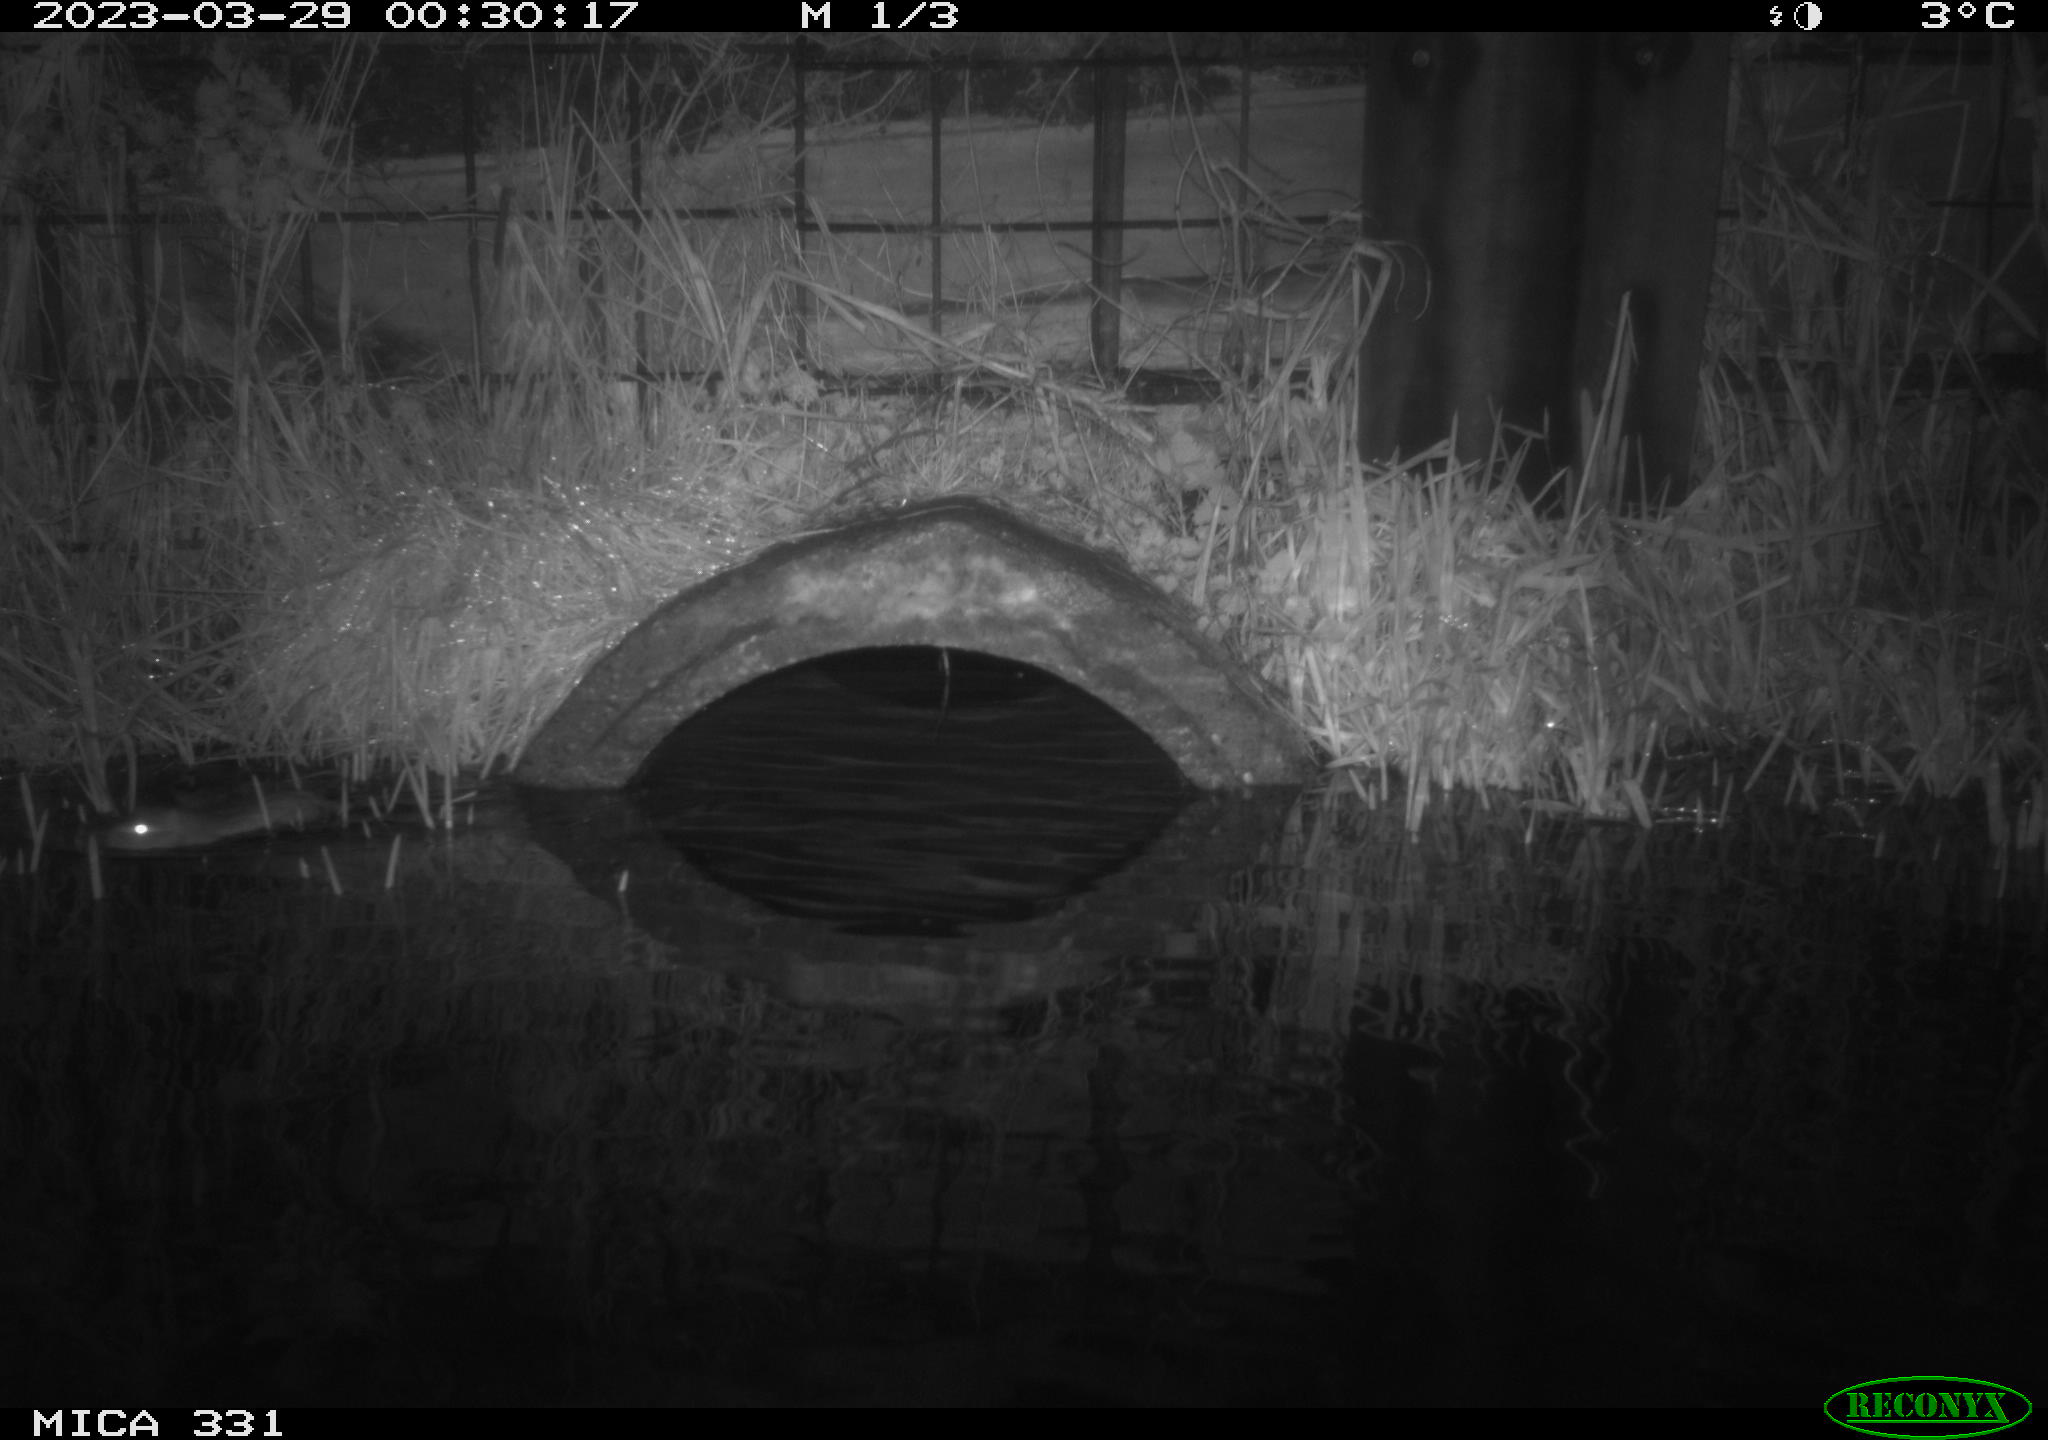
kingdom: Animalia
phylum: Chordata
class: Mammalia
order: Rodentia
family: Cricetidae
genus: Ondatra
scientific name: Ondatra zibethicus
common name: Muskrat
